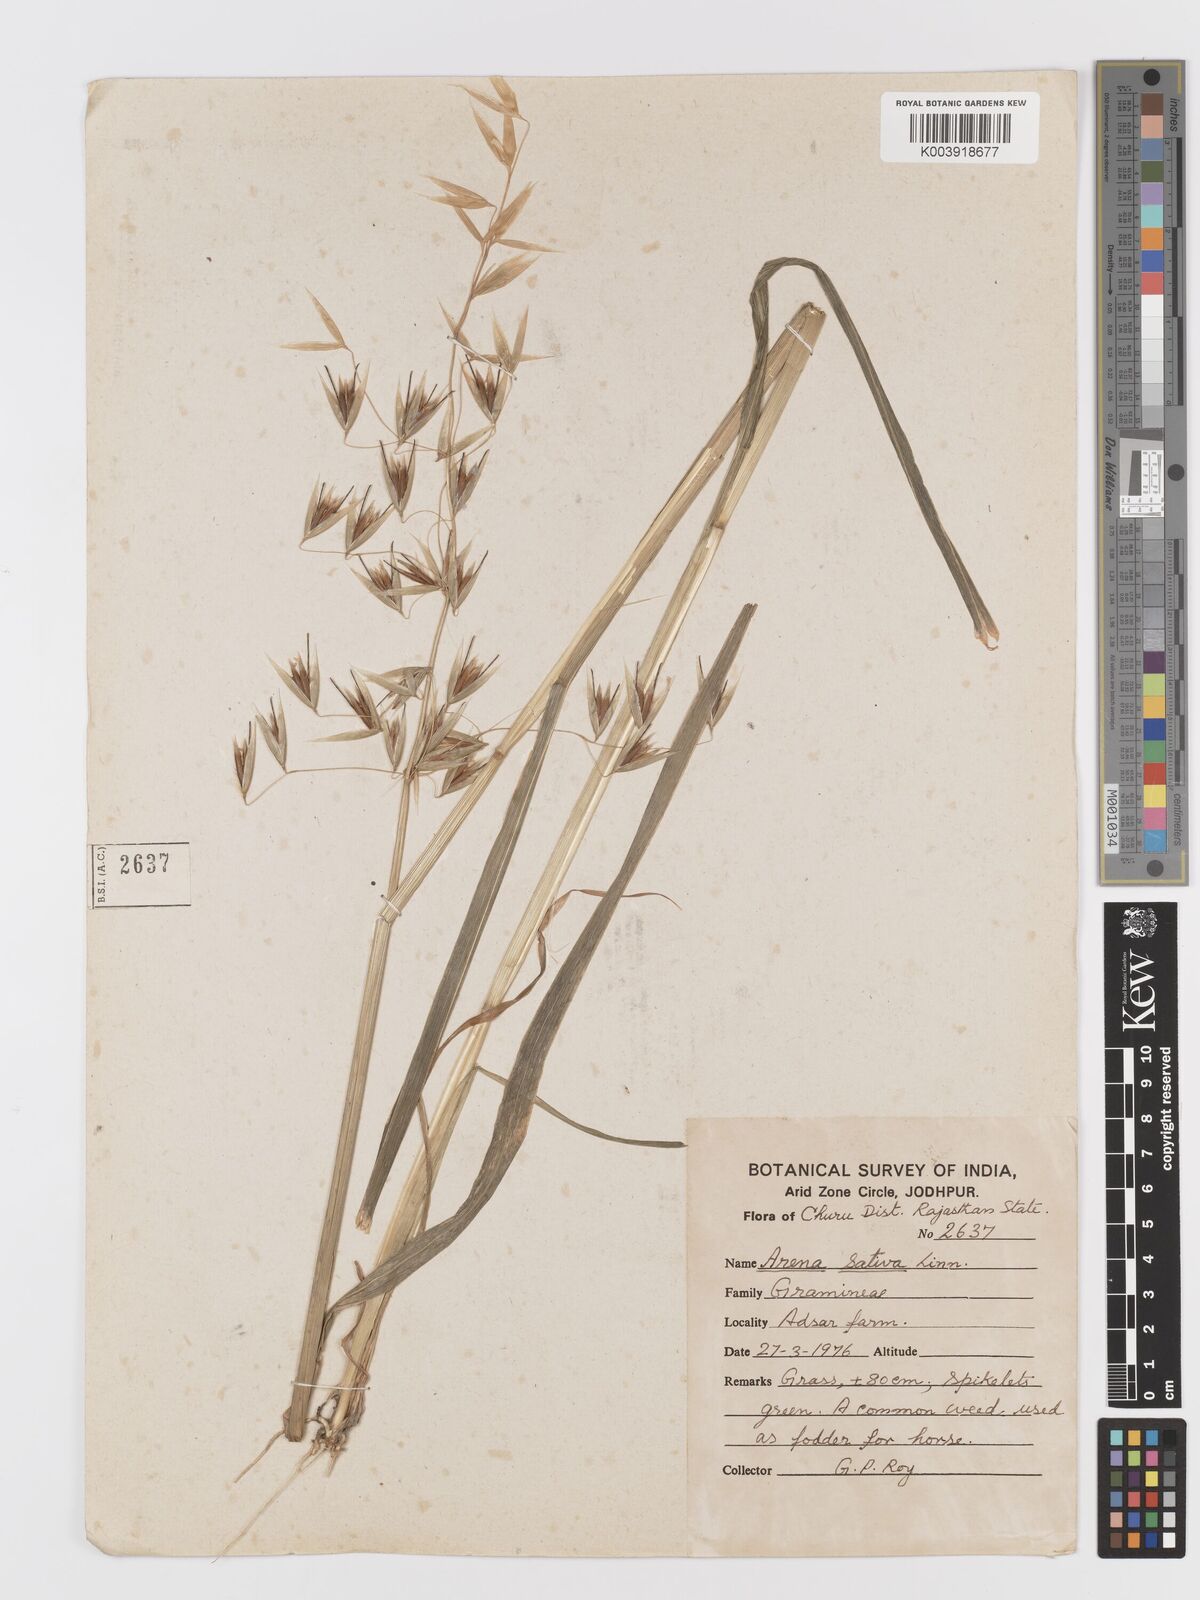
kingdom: Plantae
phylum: Tracheophyta
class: Liliopsida
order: Poales
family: Poaceae
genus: Avena
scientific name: Avena sativa
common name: Oat
